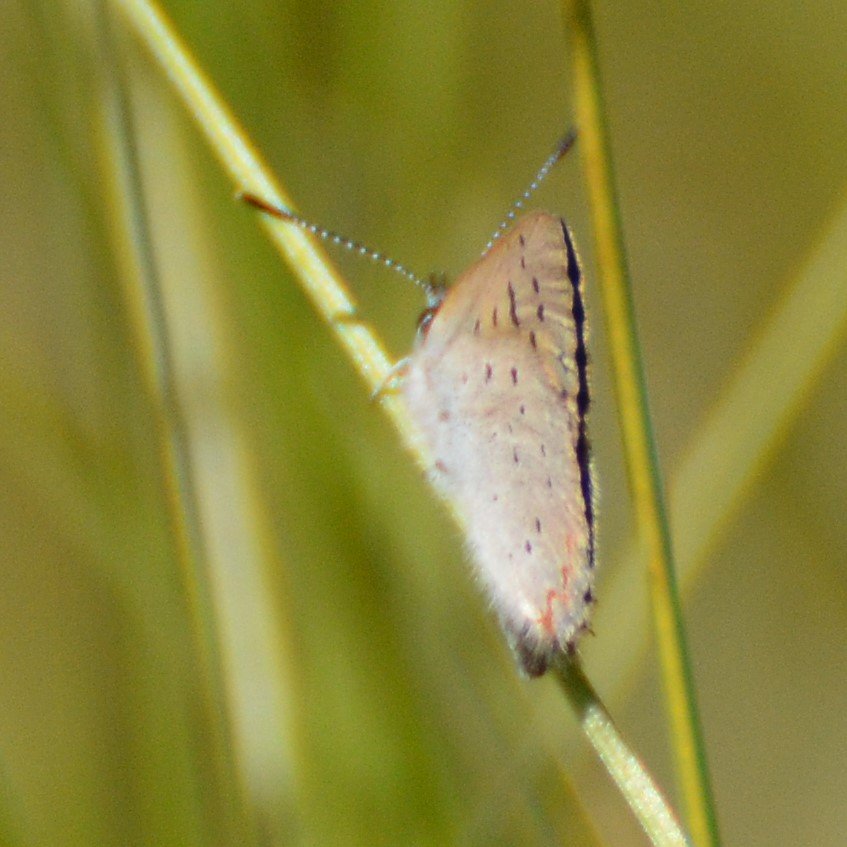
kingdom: Animalia
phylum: Arthropoda
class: Insecta
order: Lepidoptera
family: Sesiidae
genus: Sesia
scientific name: Sesia Lycaena epixanthe
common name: Bog Copper
